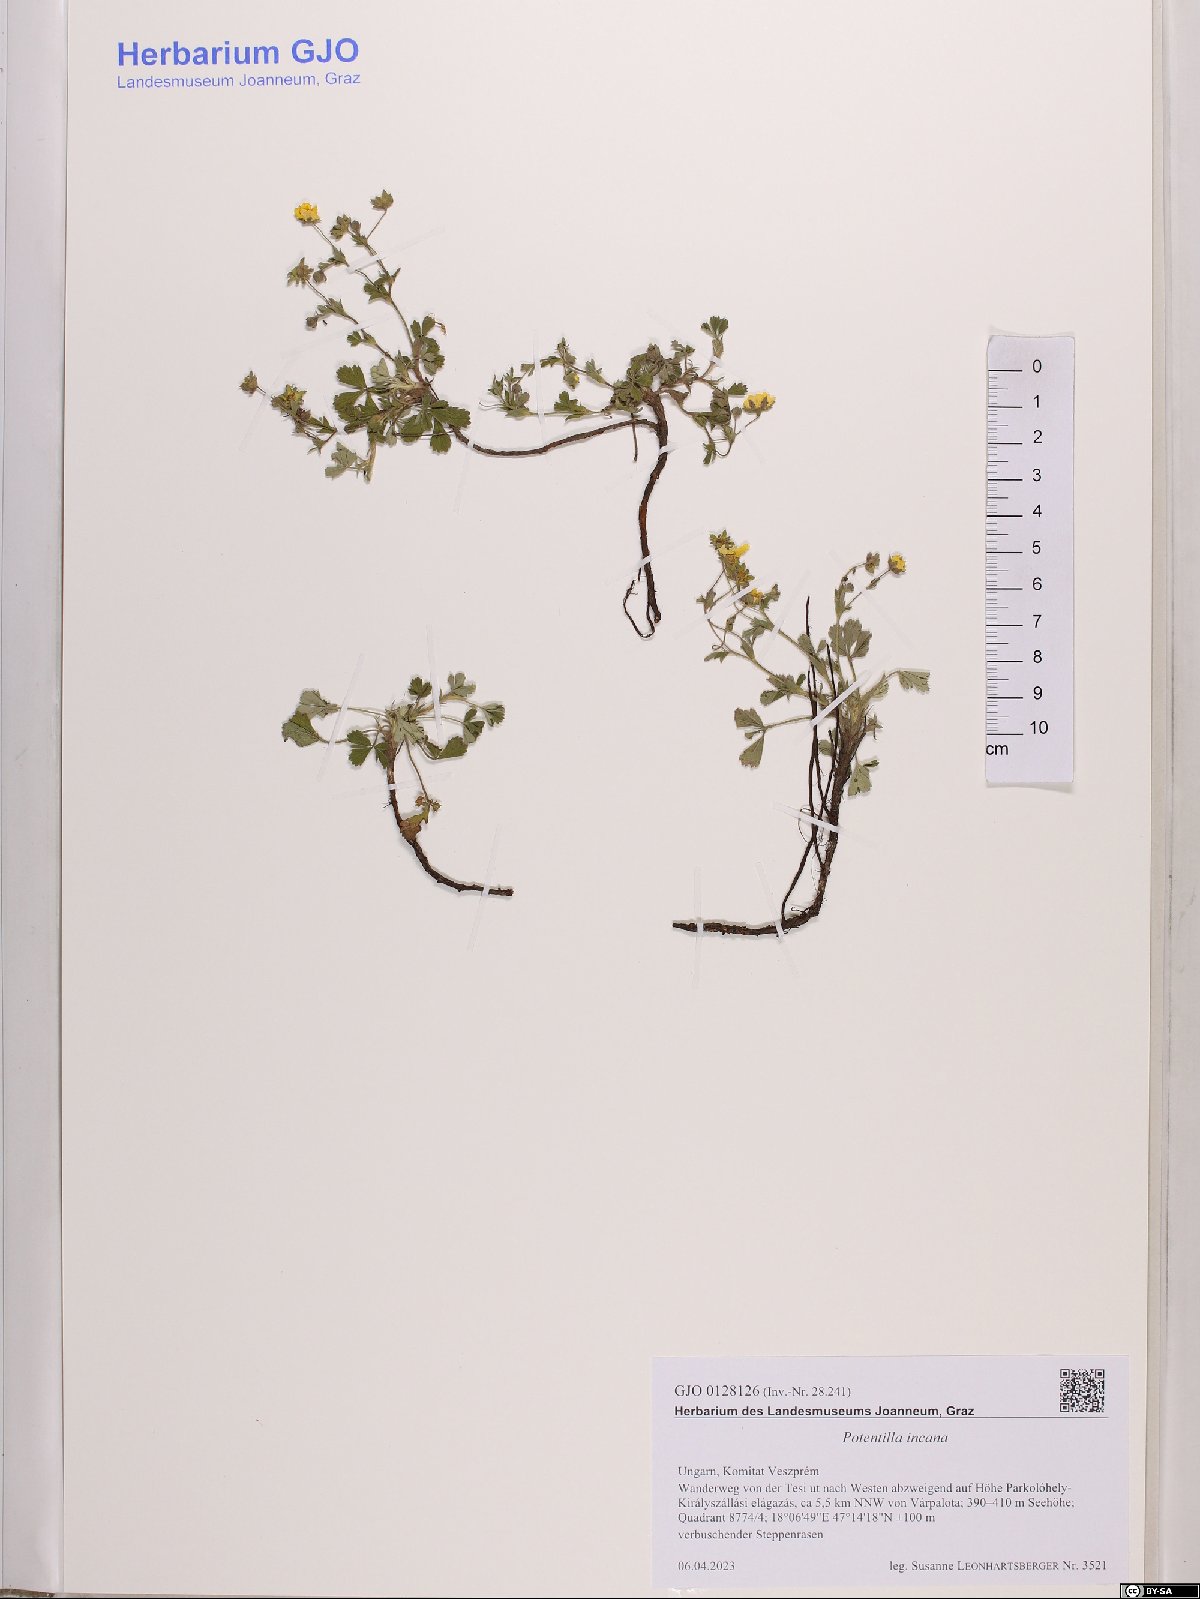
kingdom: Plantae
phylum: Tracheophyta
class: Magnoliopsida
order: Rosales
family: Rosaceae
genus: Potentilla
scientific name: Potentilla cinerea
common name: Ashy cinquefoil
